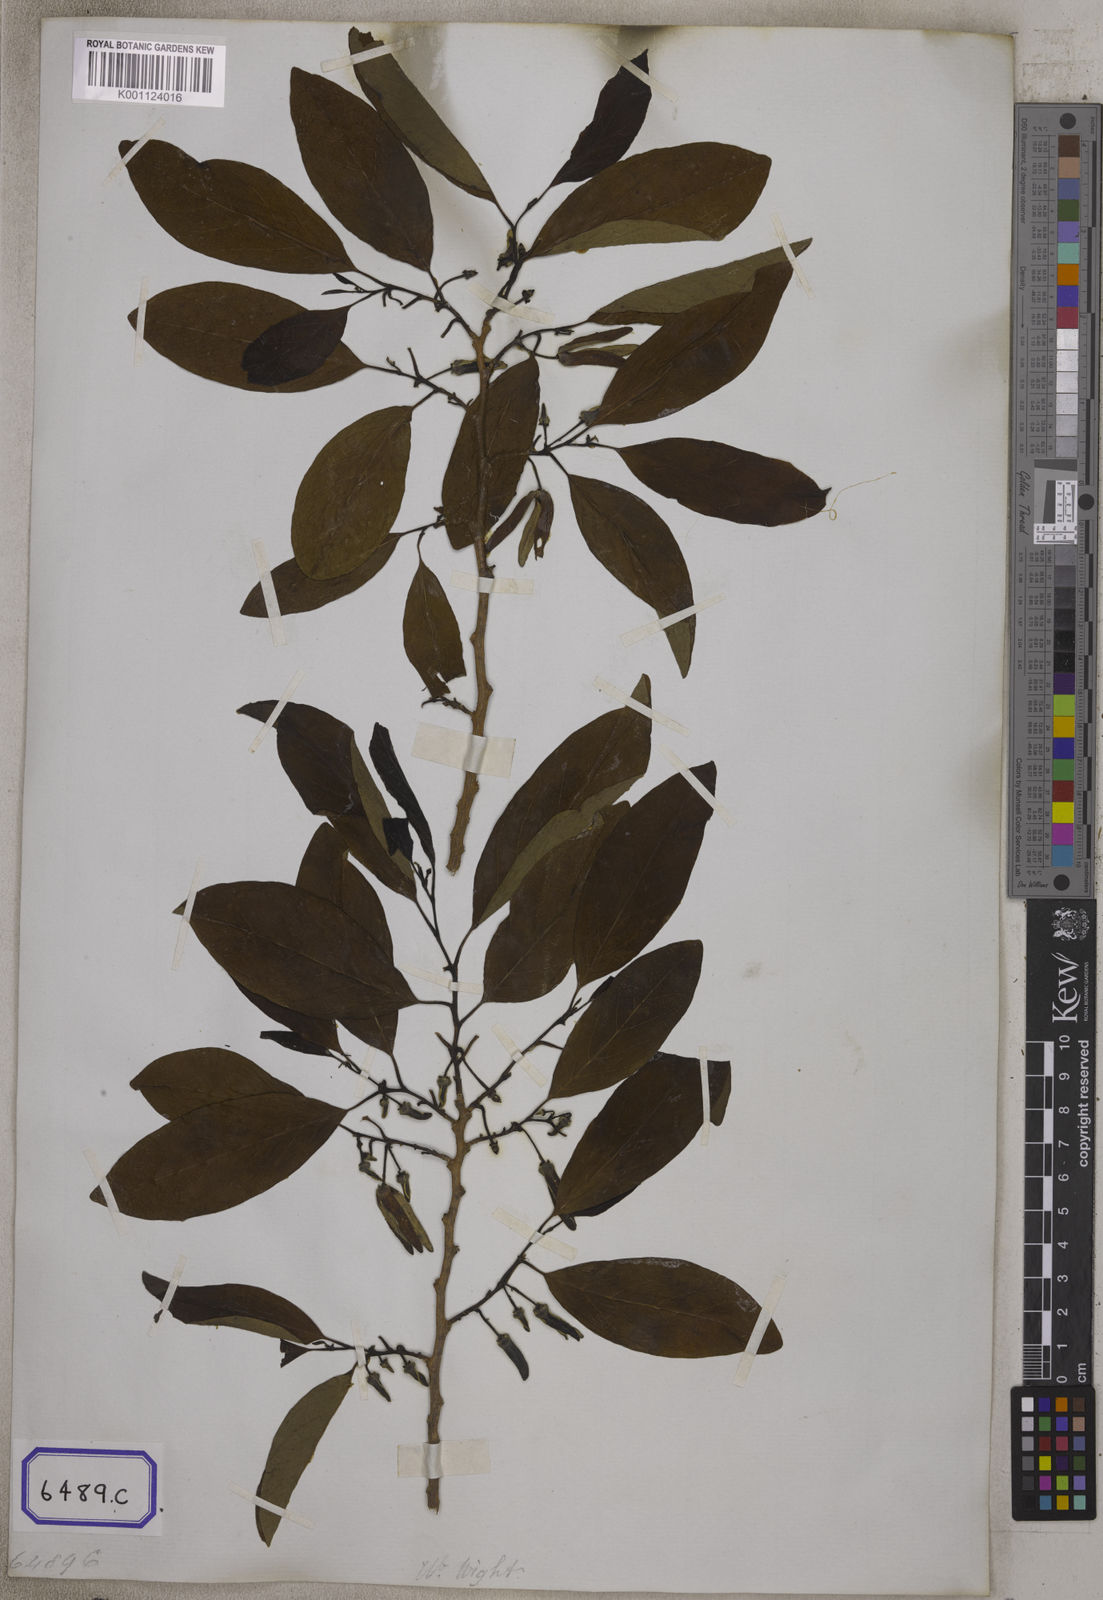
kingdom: Plantae
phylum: Tracheophyta
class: Magnoliopsida
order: Magnoliales
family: Annonaceae
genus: Annona
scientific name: Annona reticulata
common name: Custard apple
